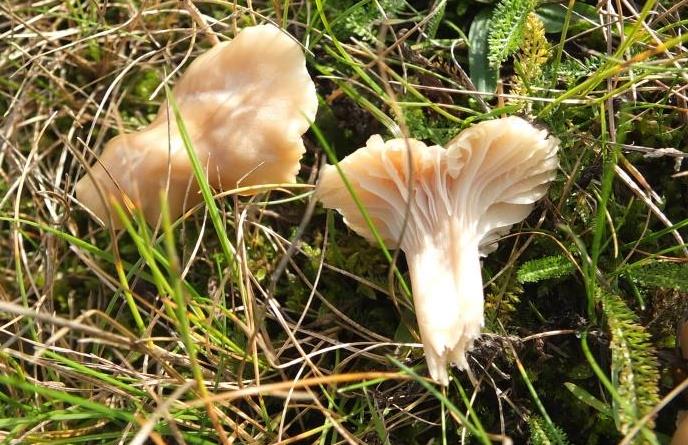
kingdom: Fungi
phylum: Basidiomycota
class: Agaricomycetes
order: Agaricales
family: Hygrophoraceae
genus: Cuphophyllus
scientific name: Cuphophyllus
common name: vokshat
